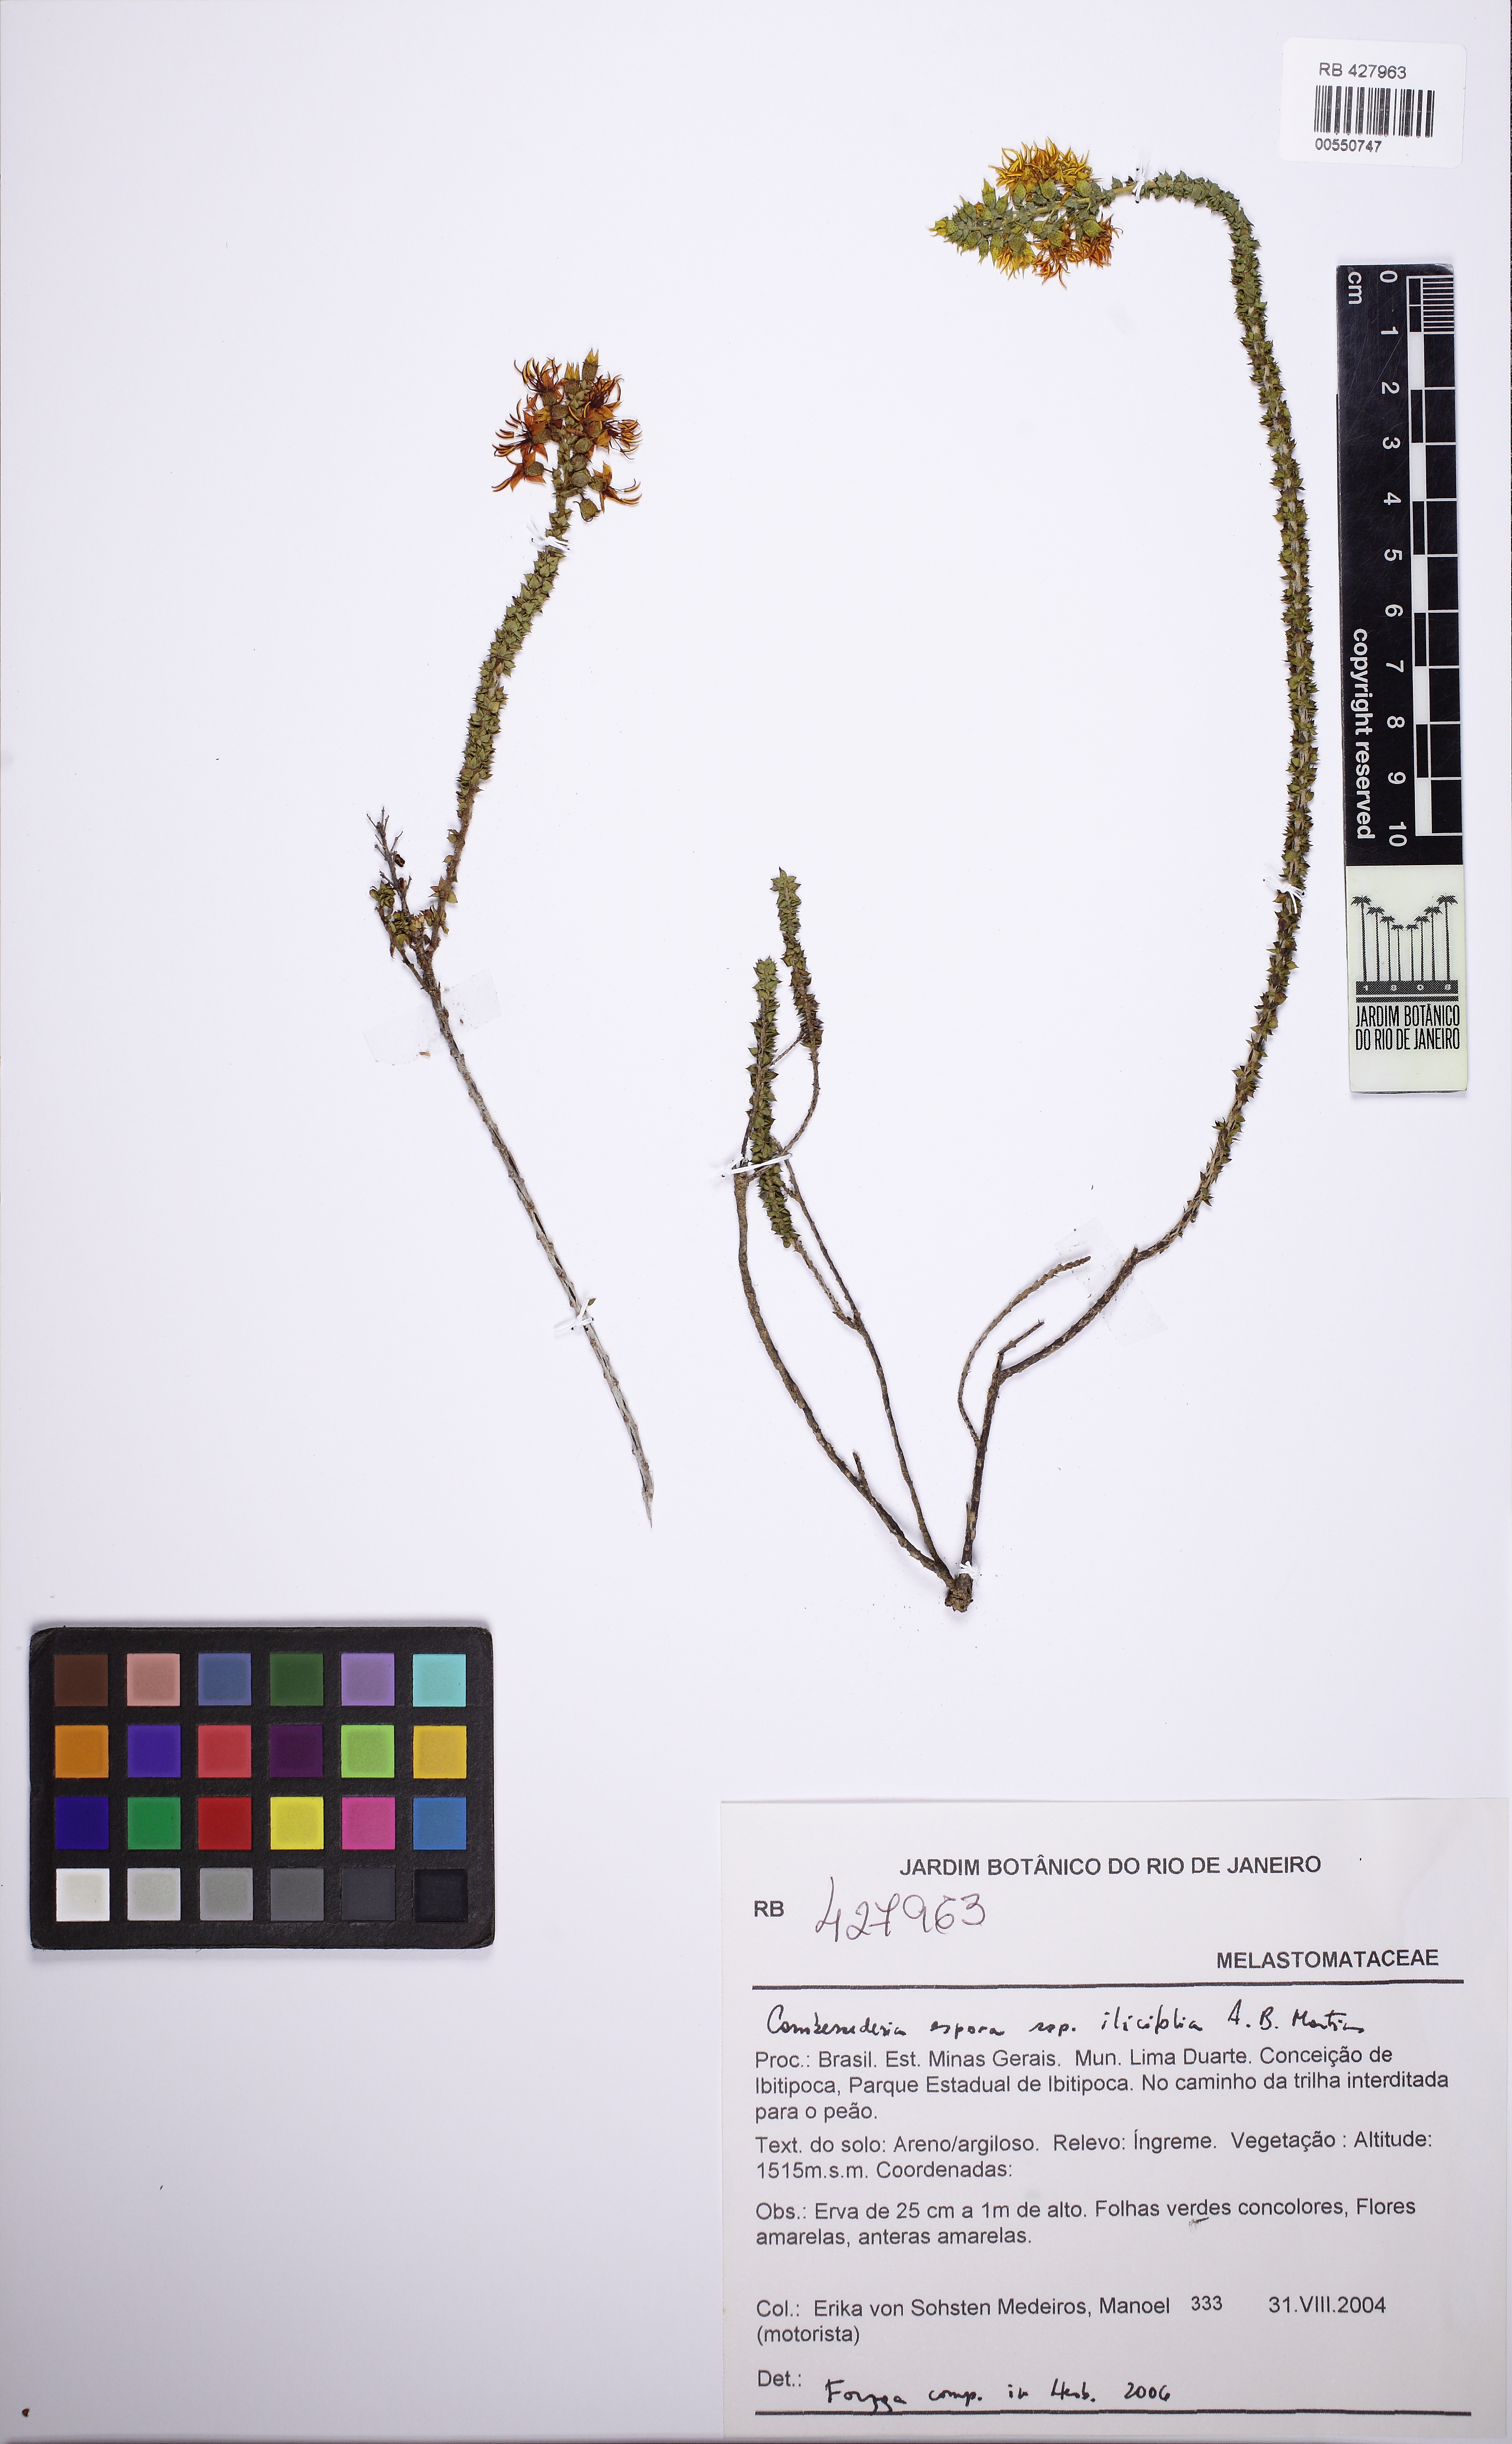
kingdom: Plantae
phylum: Tracheophyta
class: Magnoliopsida
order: Myrtales
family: Melastomataceae
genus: Cambessedesia
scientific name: Cambessedesia espora
